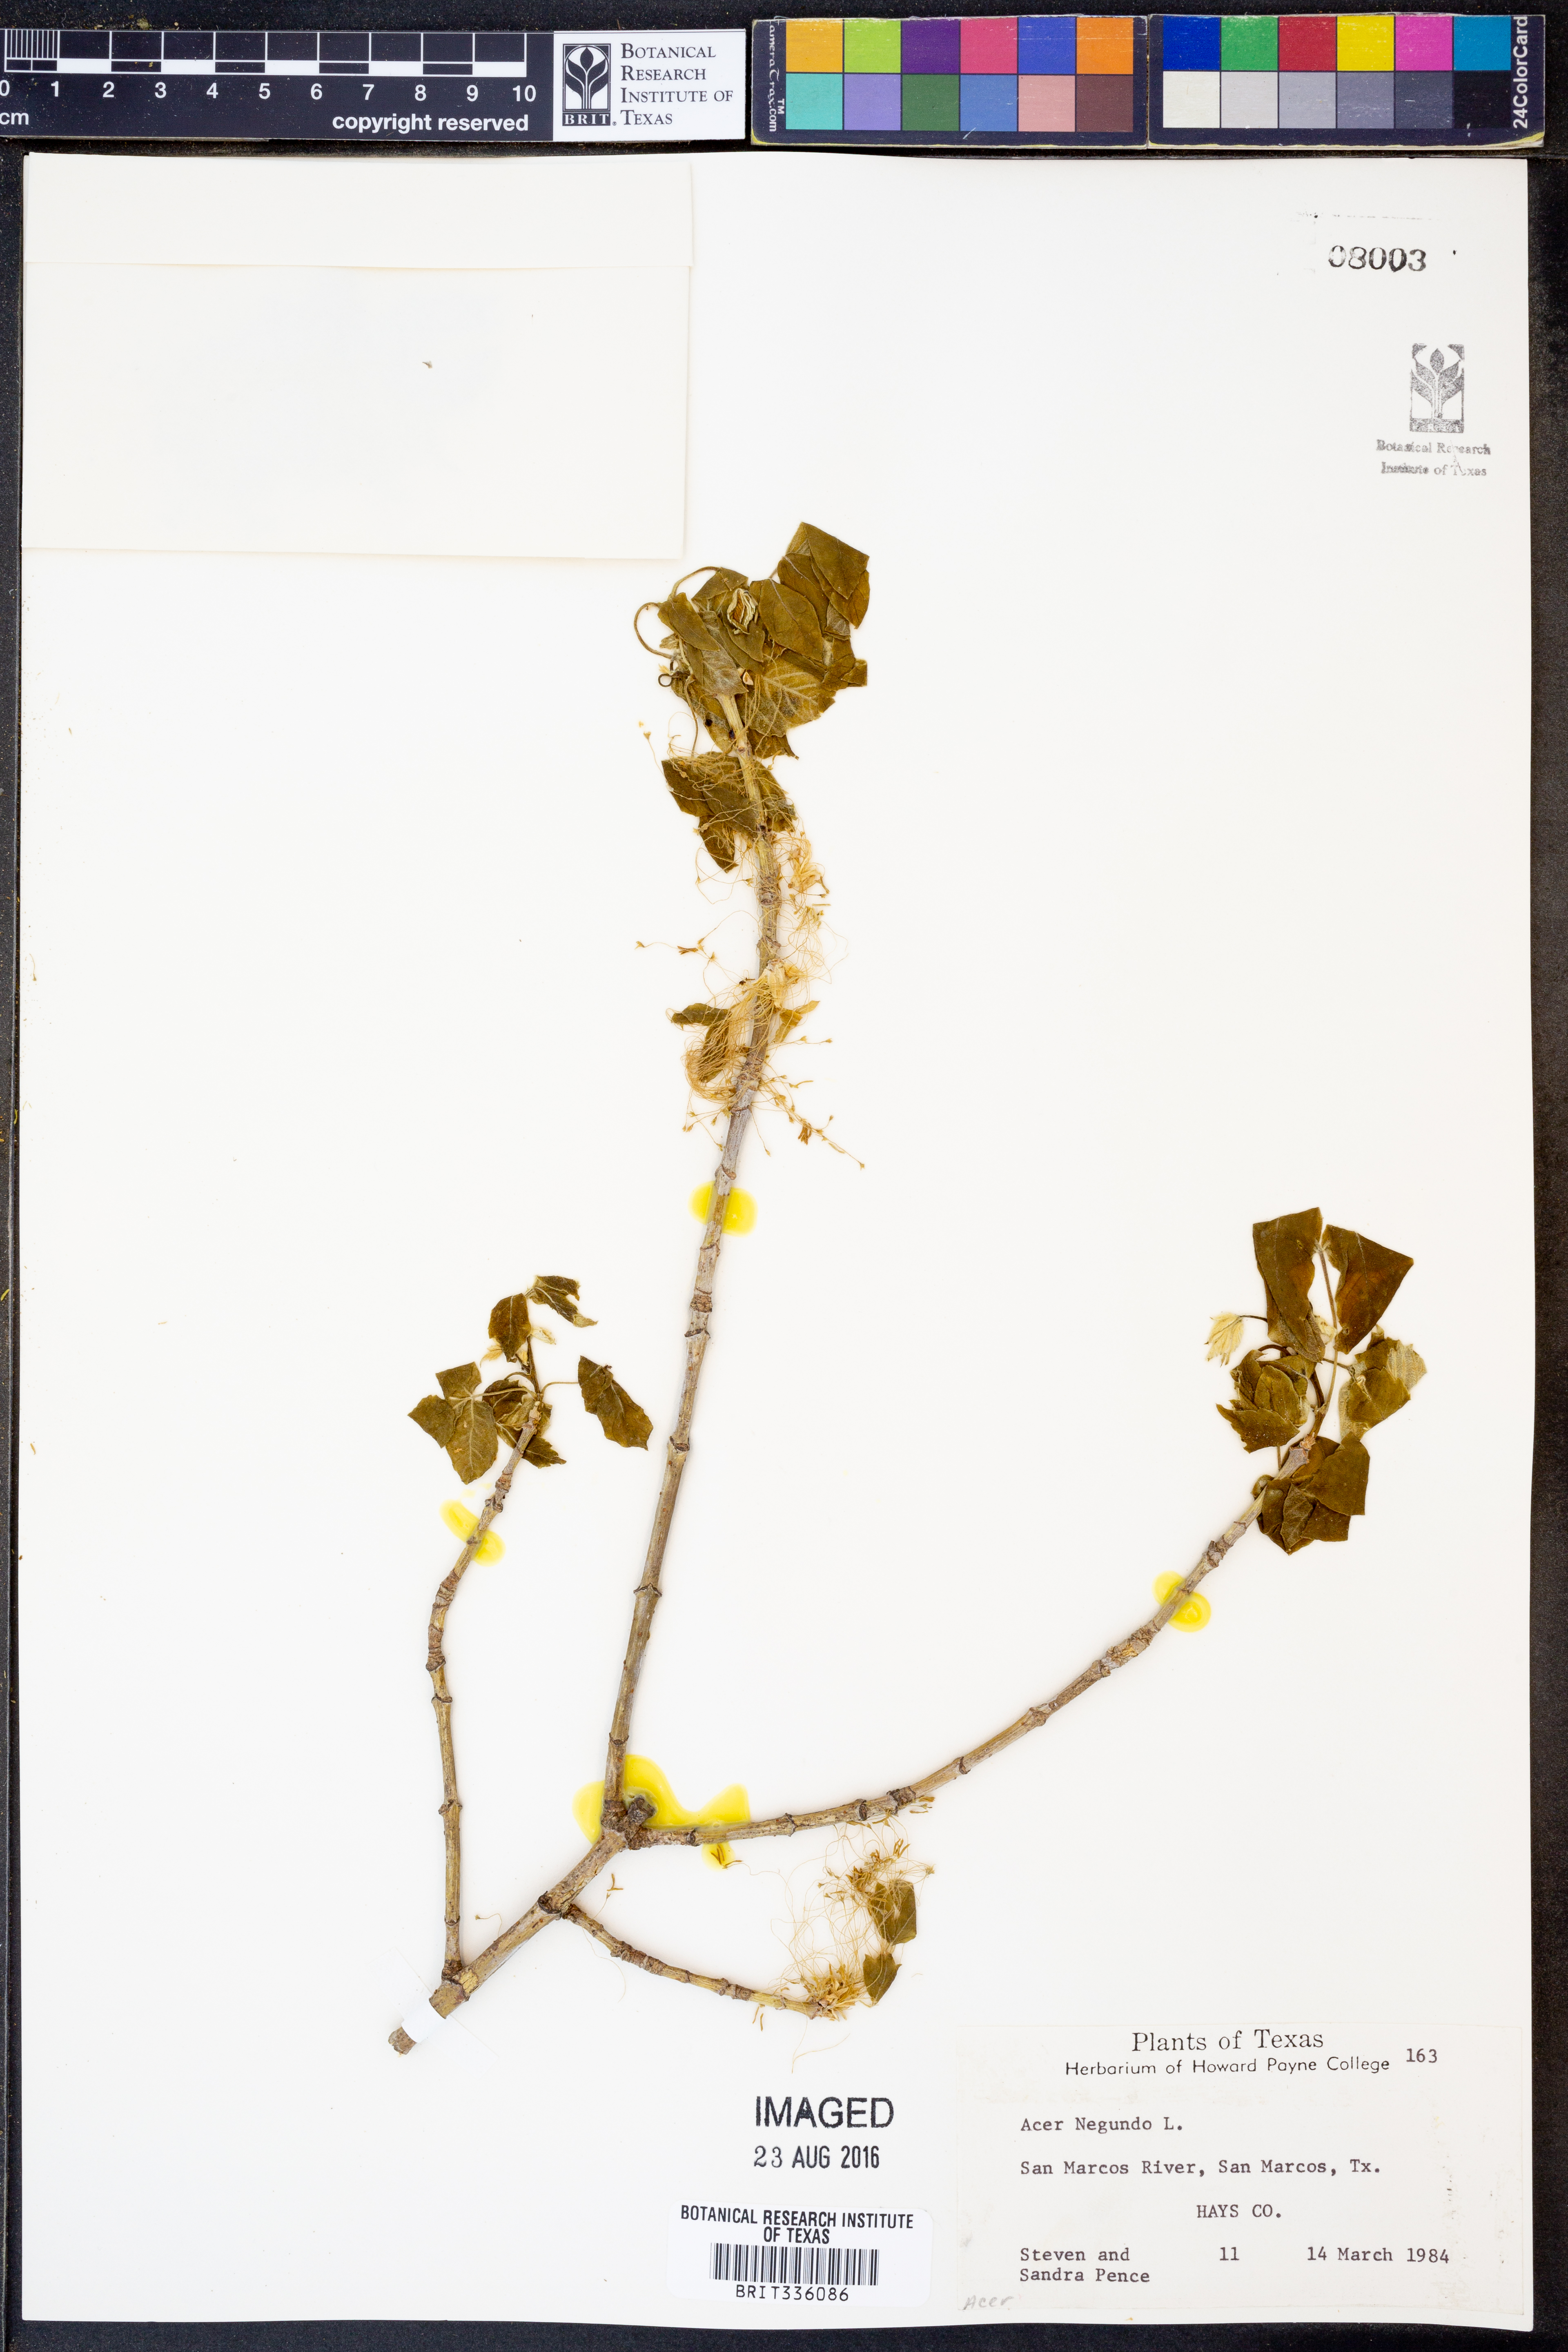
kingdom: Plantae
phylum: Tracheophyta
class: Magnoliopsida
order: Sapindales
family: Sapindaceae
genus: Acer
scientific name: Acer negundo
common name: Ashleaf maple
